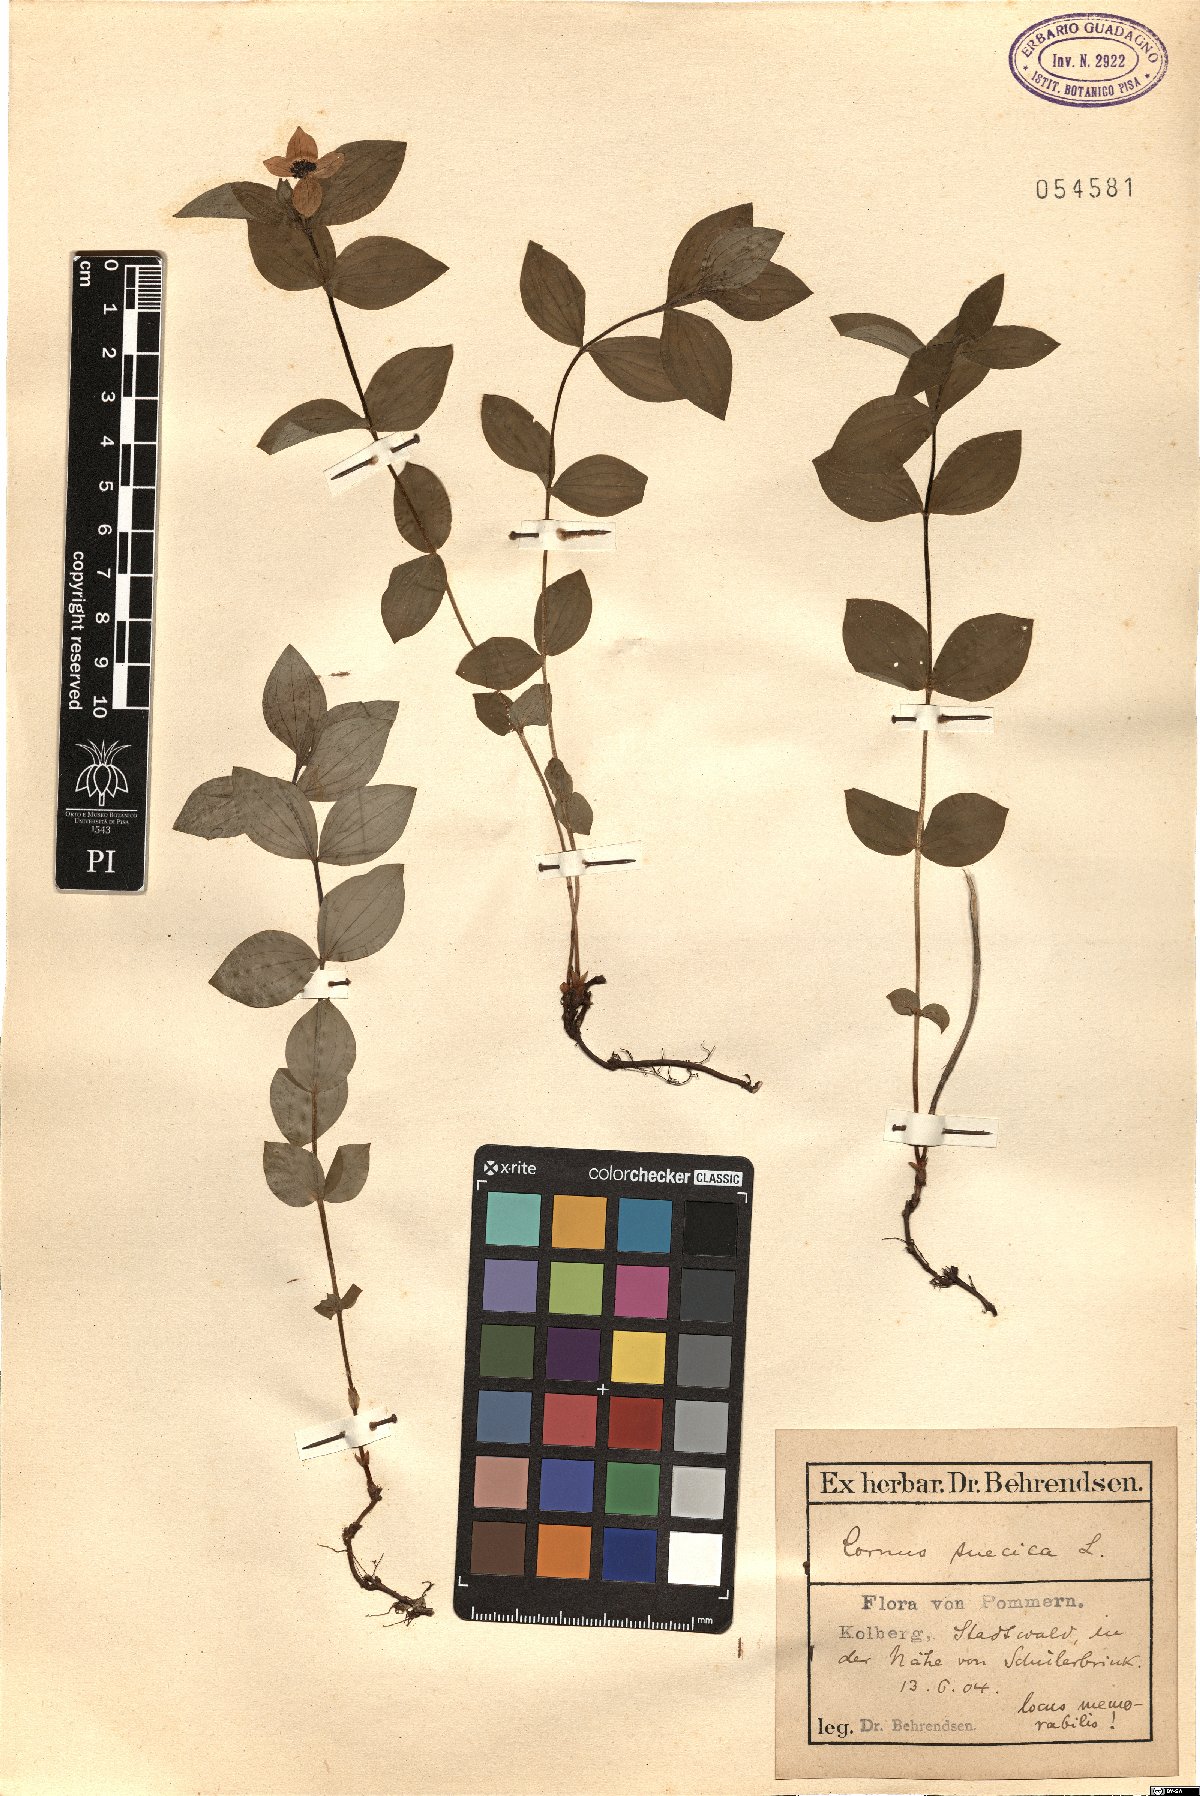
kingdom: Plantae
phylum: Tracheophyta
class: Magnoliopsida
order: Cornales
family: Cornaceae
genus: Cornus
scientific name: Cornus suecica
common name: Dwarf cornel
